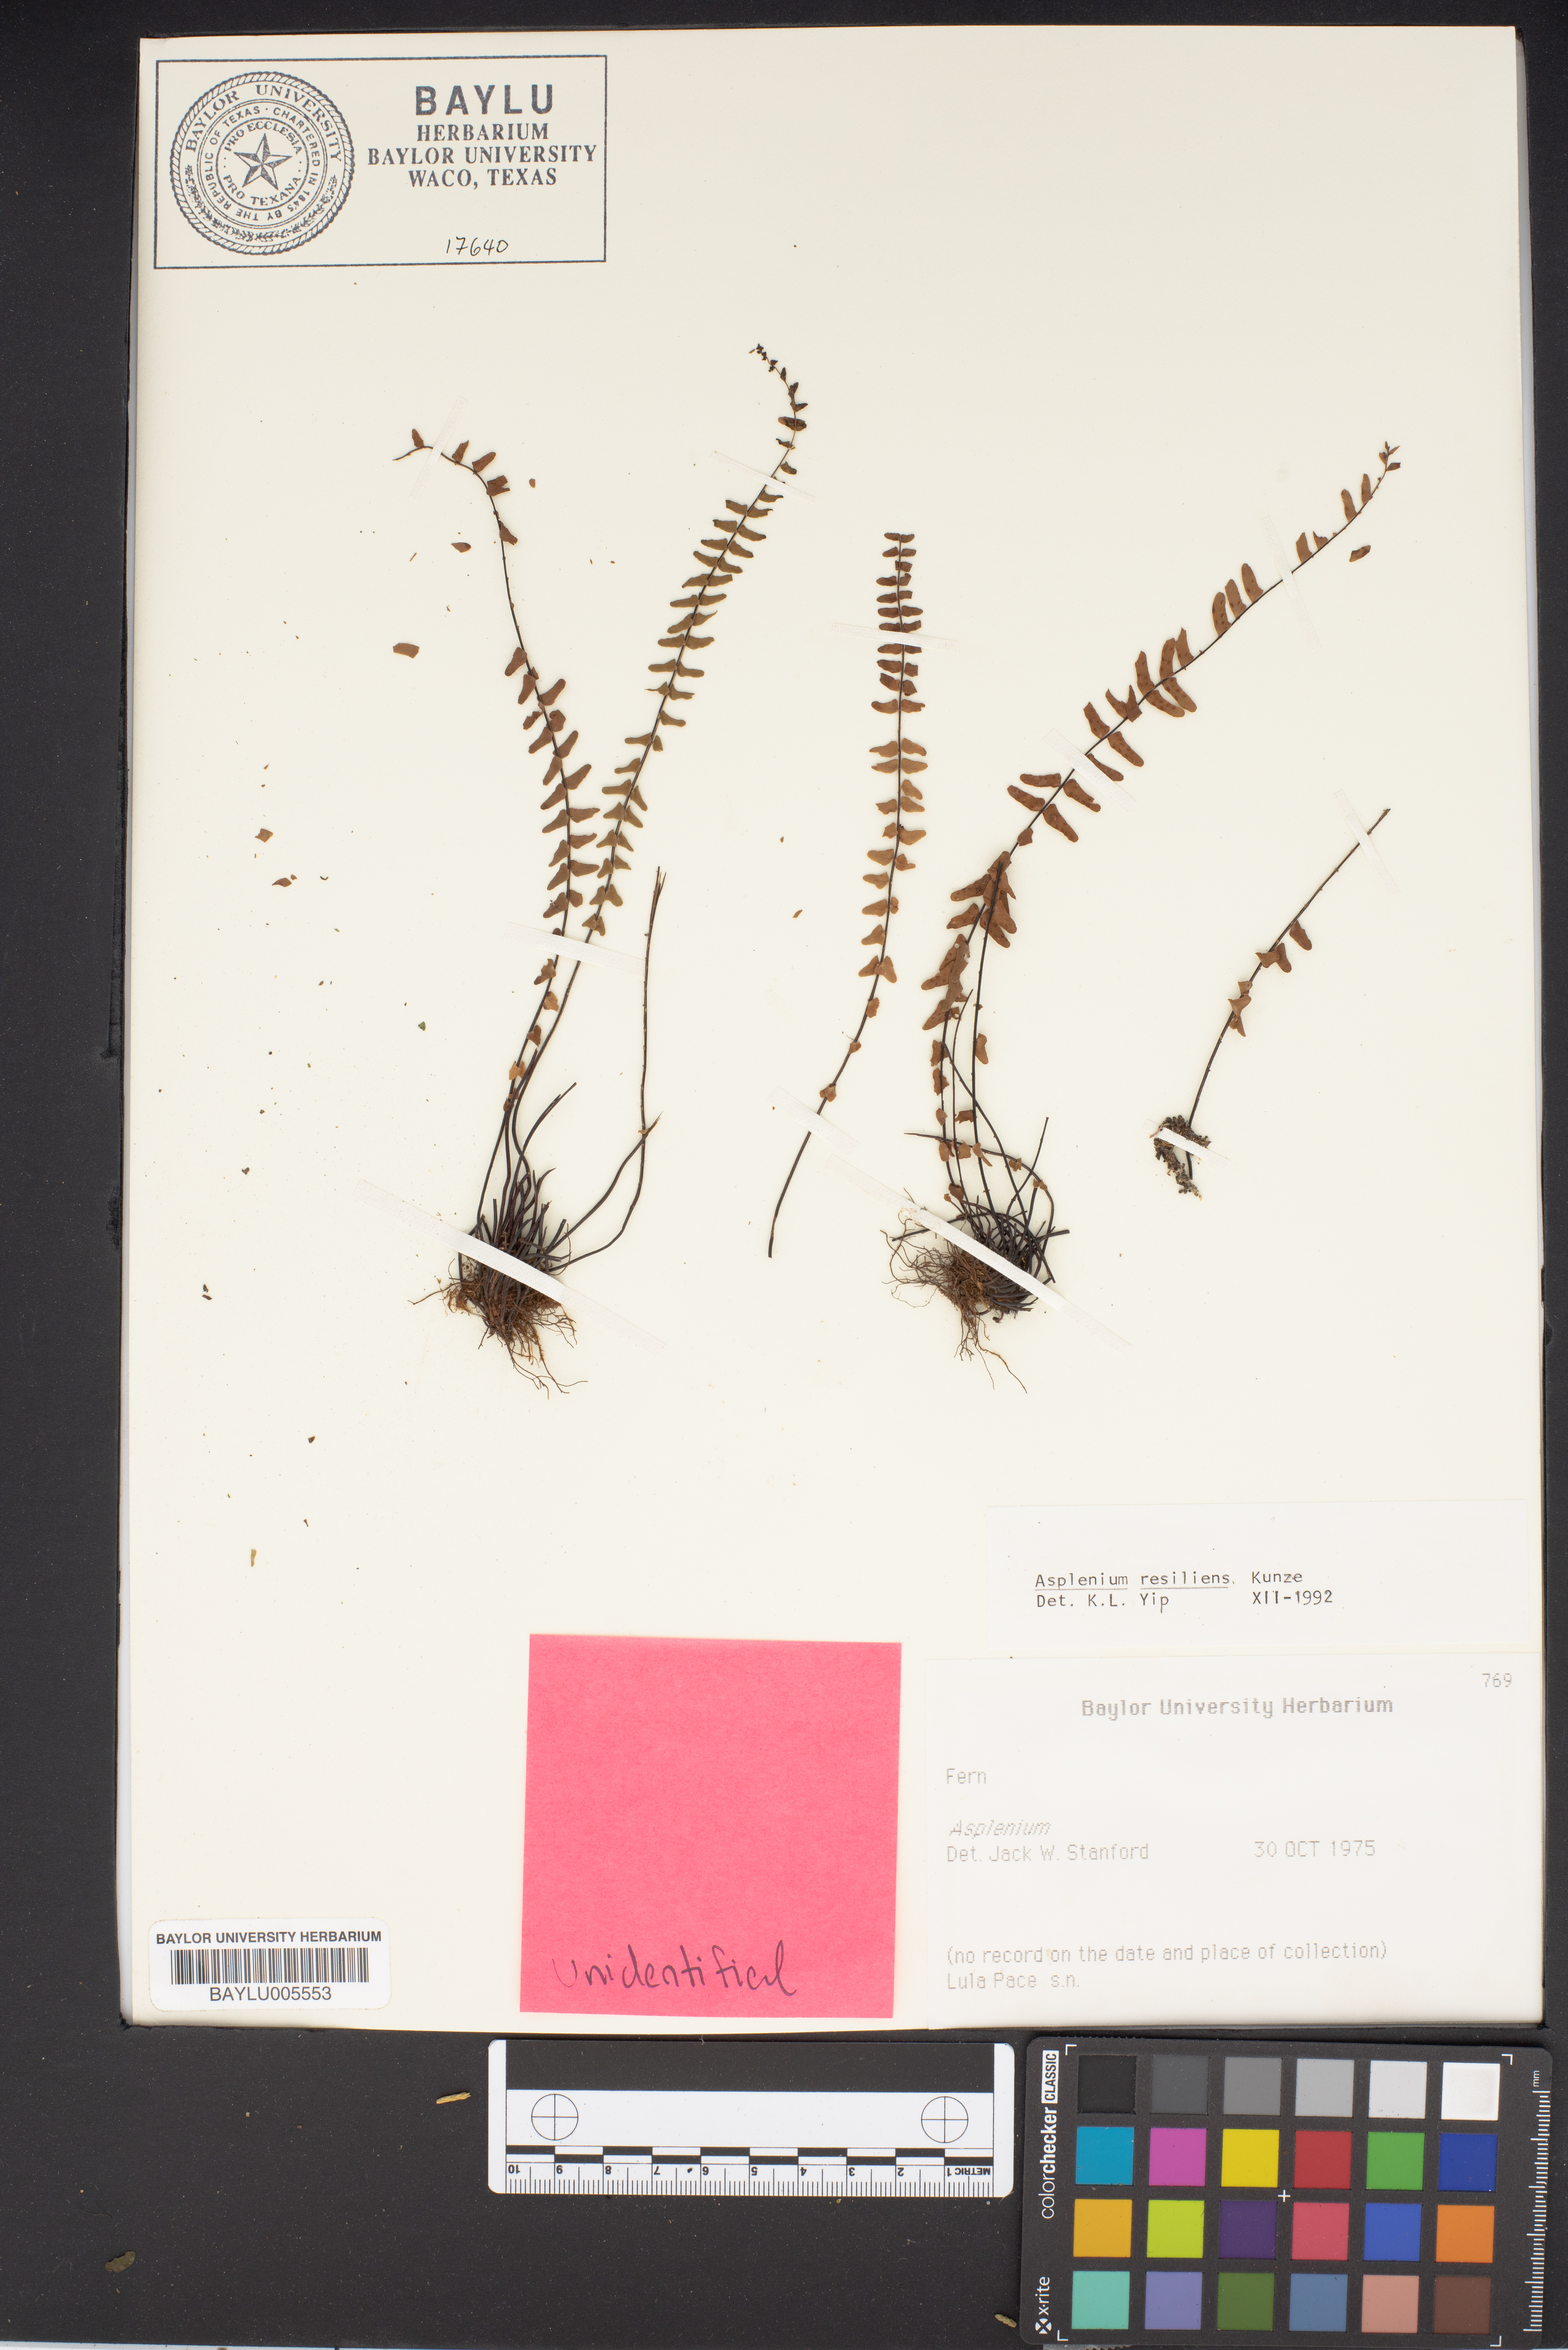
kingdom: Plantae
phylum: Tracheophyta
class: Polypodiopsida
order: Polypodiales
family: Aspleniaceae
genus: Asplenium
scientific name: Asplenium resiliens
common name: Blackstem spleenwort
